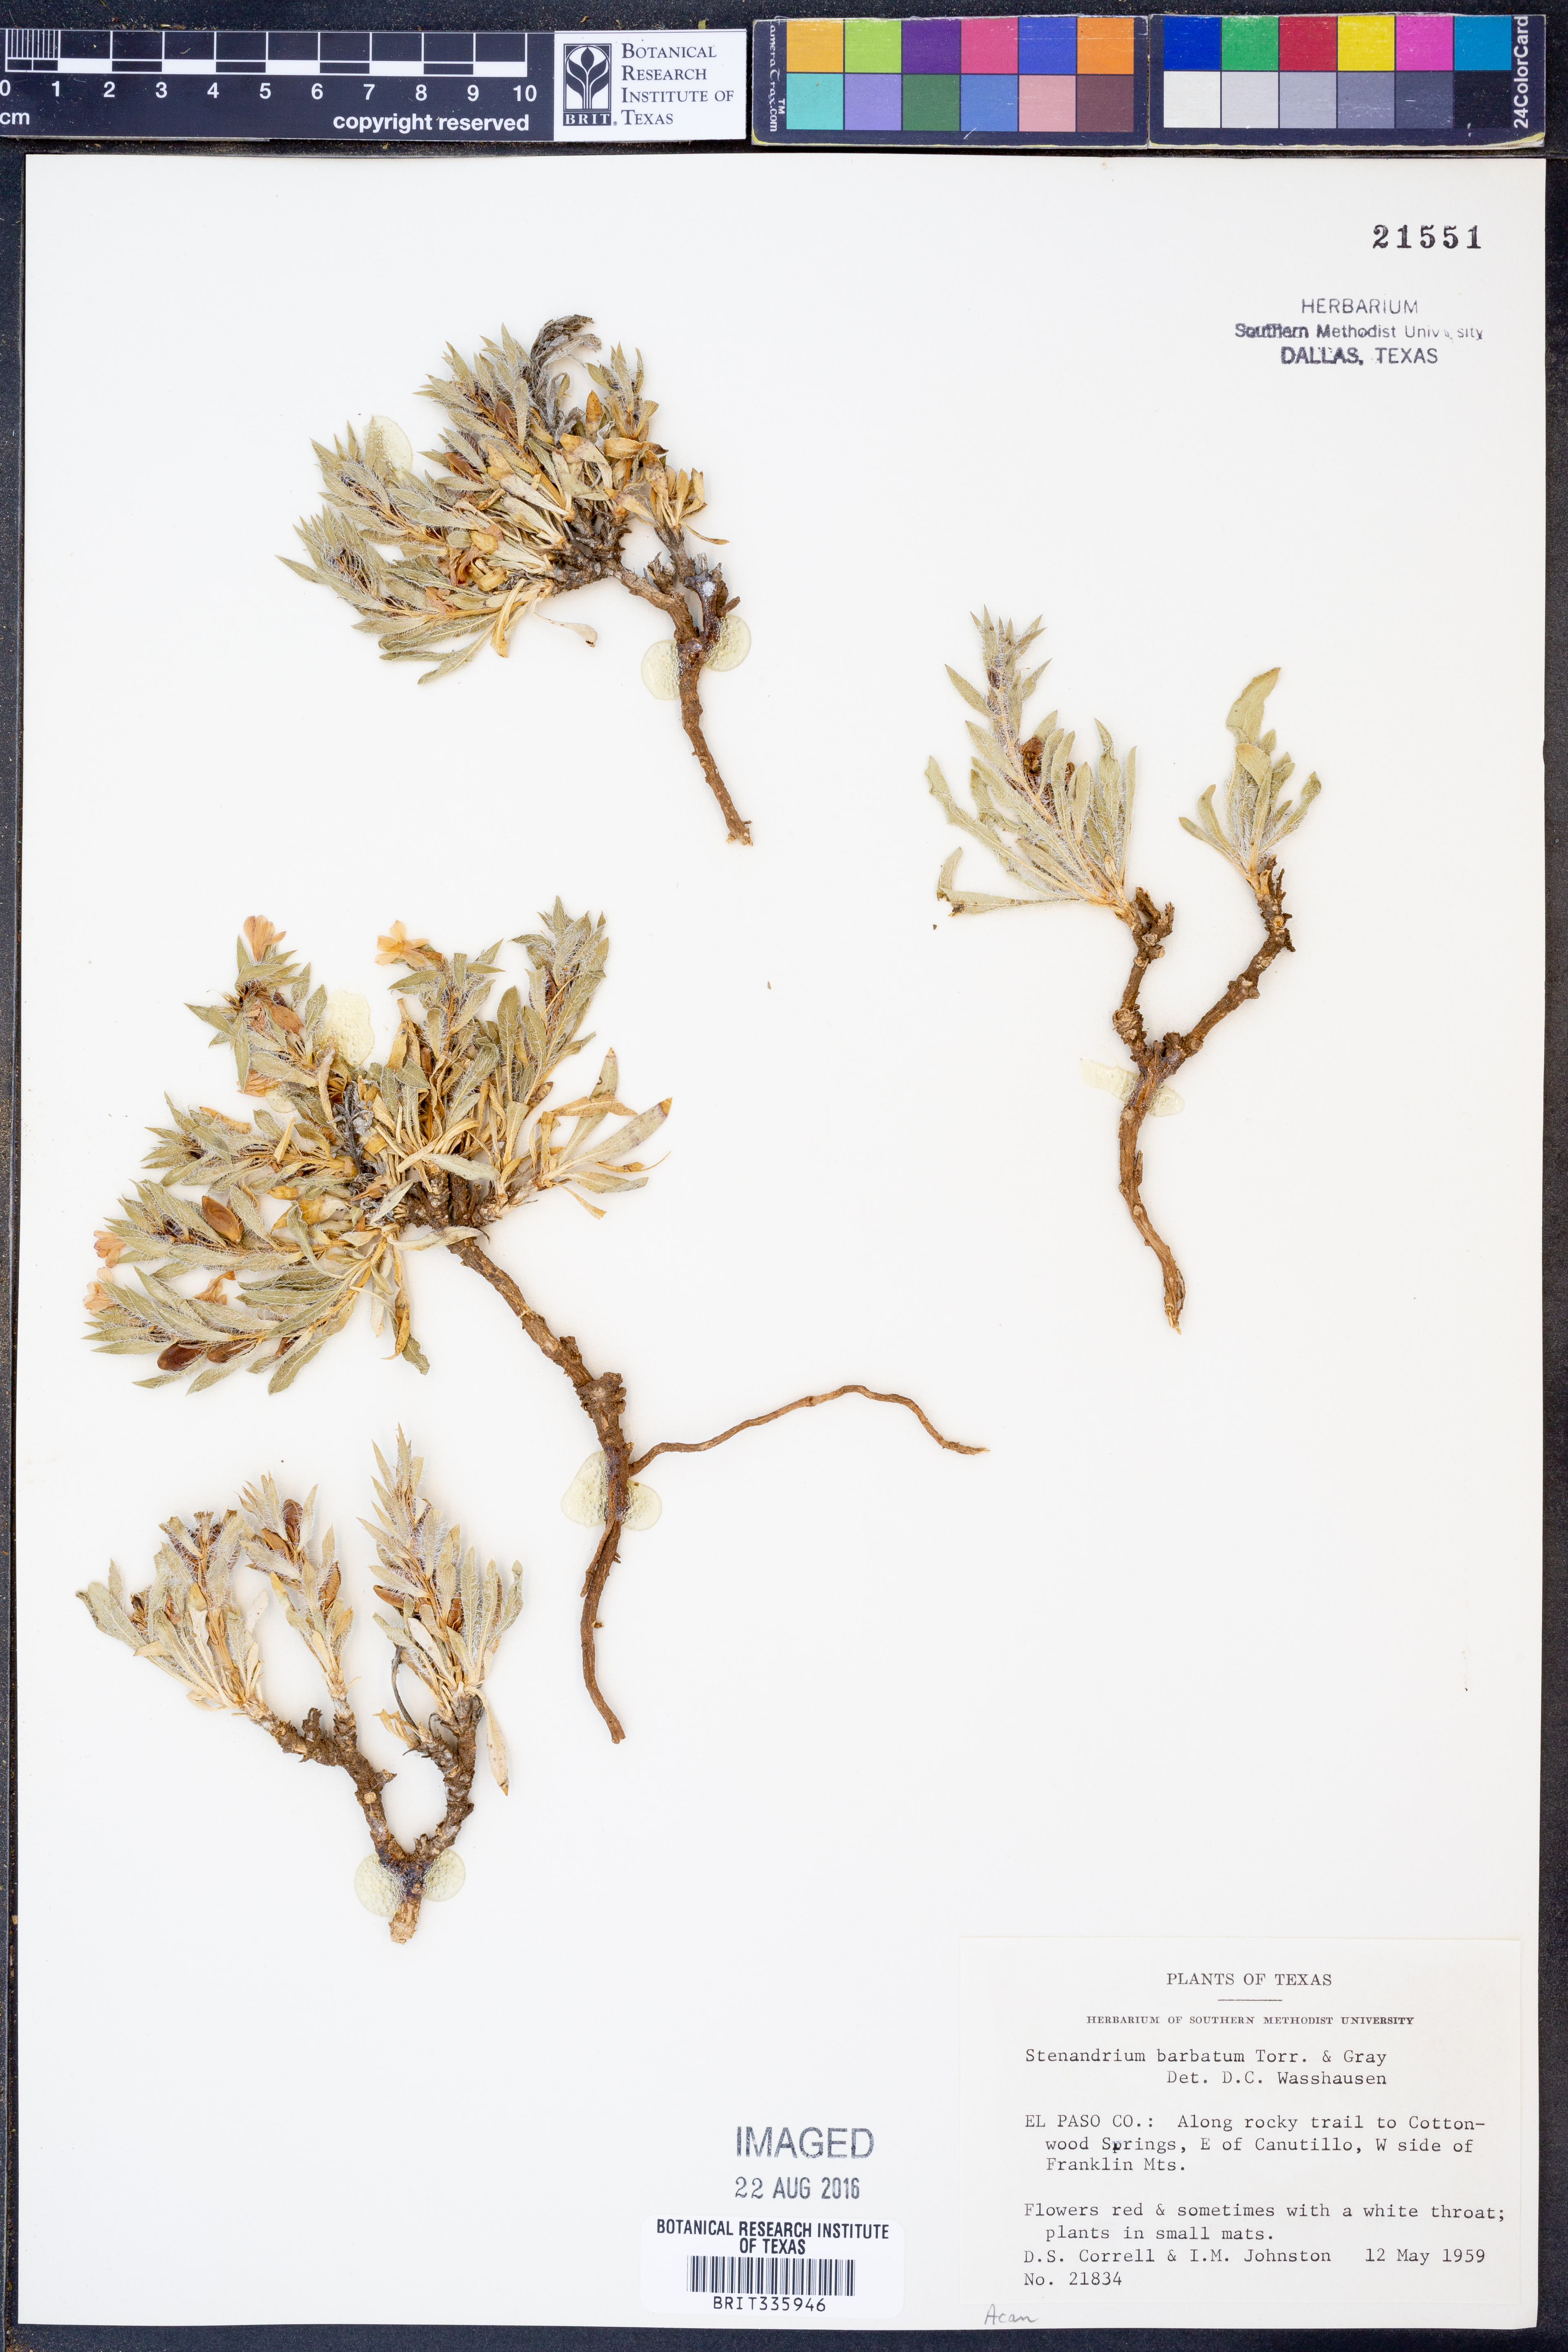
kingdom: Plantae
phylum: Tracheophyta
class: Magnoliopsida
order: Lamiales
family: Acanthaceae
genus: Stenandrium
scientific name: Stenandrium barbatum
